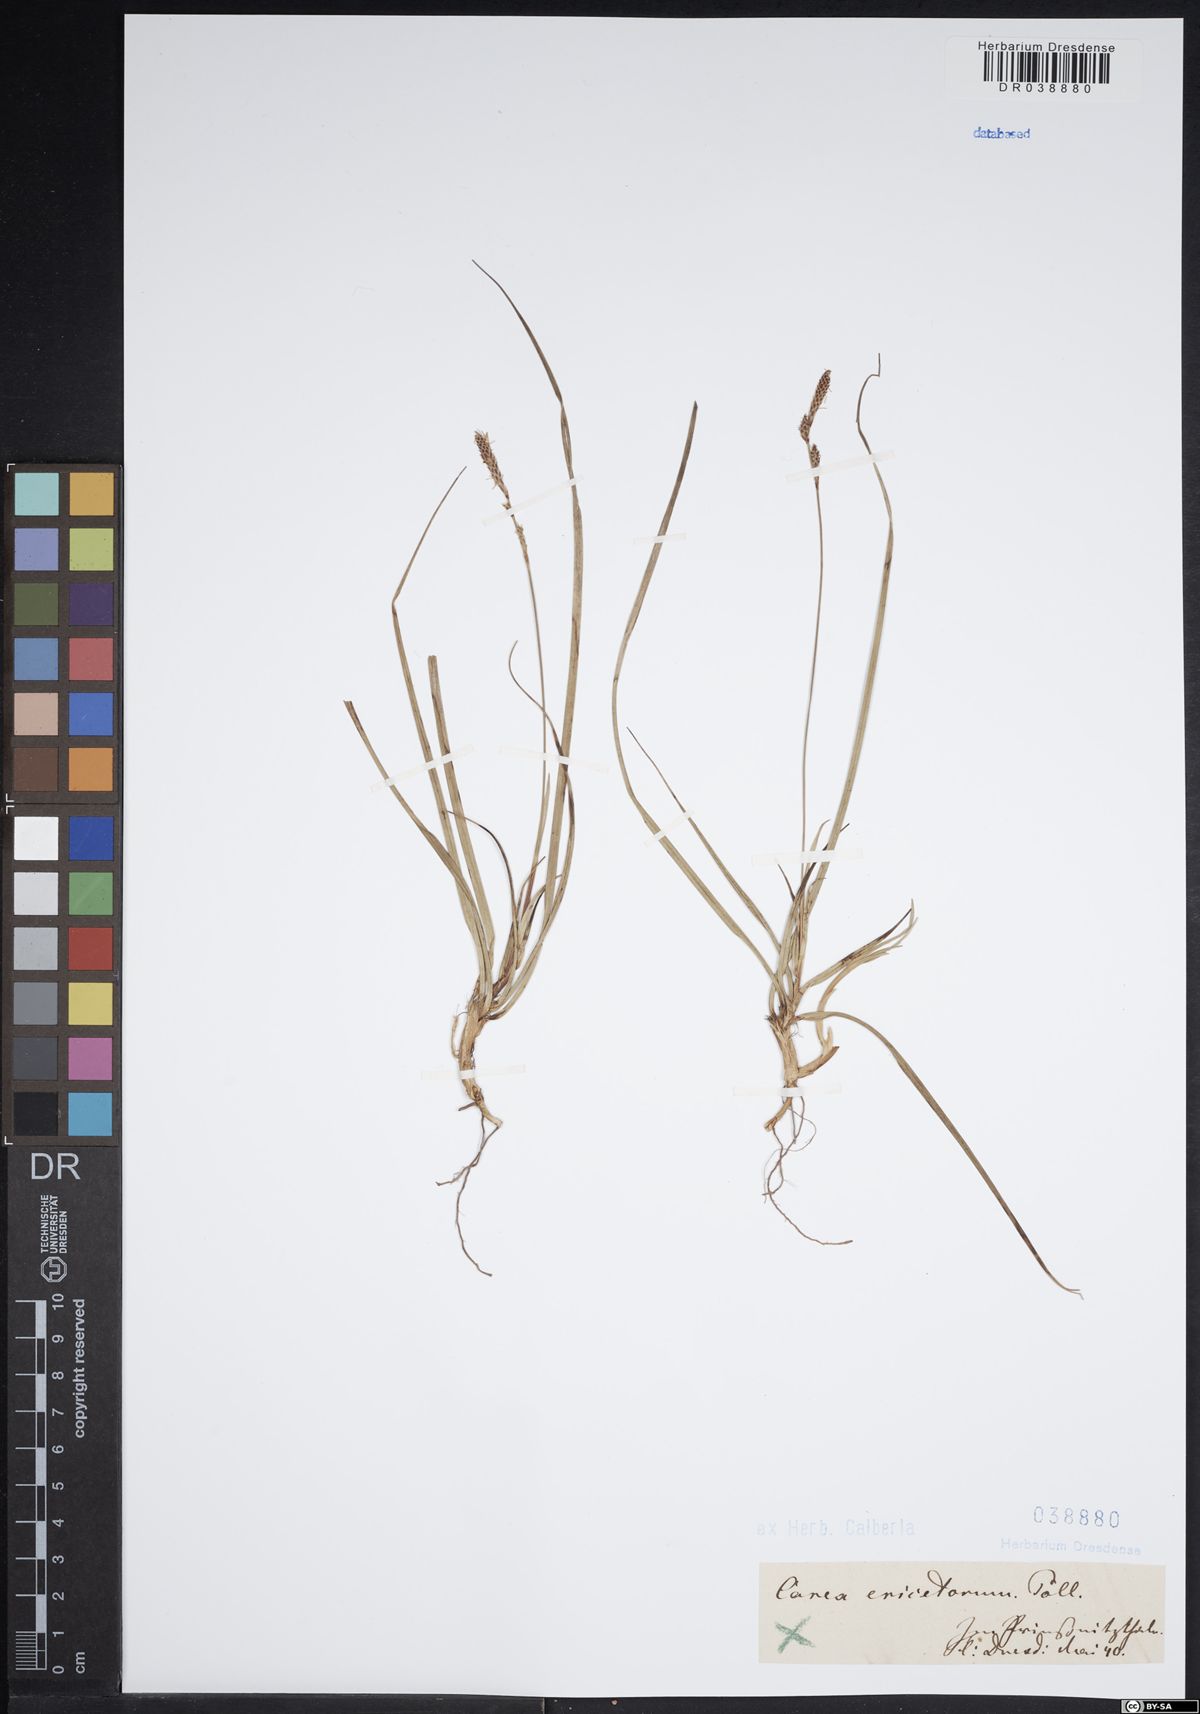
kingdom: Plantae
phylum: Tracheophyta
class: Liliopsida
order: Poales
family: Cyperaceae
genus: Carex
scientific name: Carex ericetorum
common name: Rare spring-sedge
